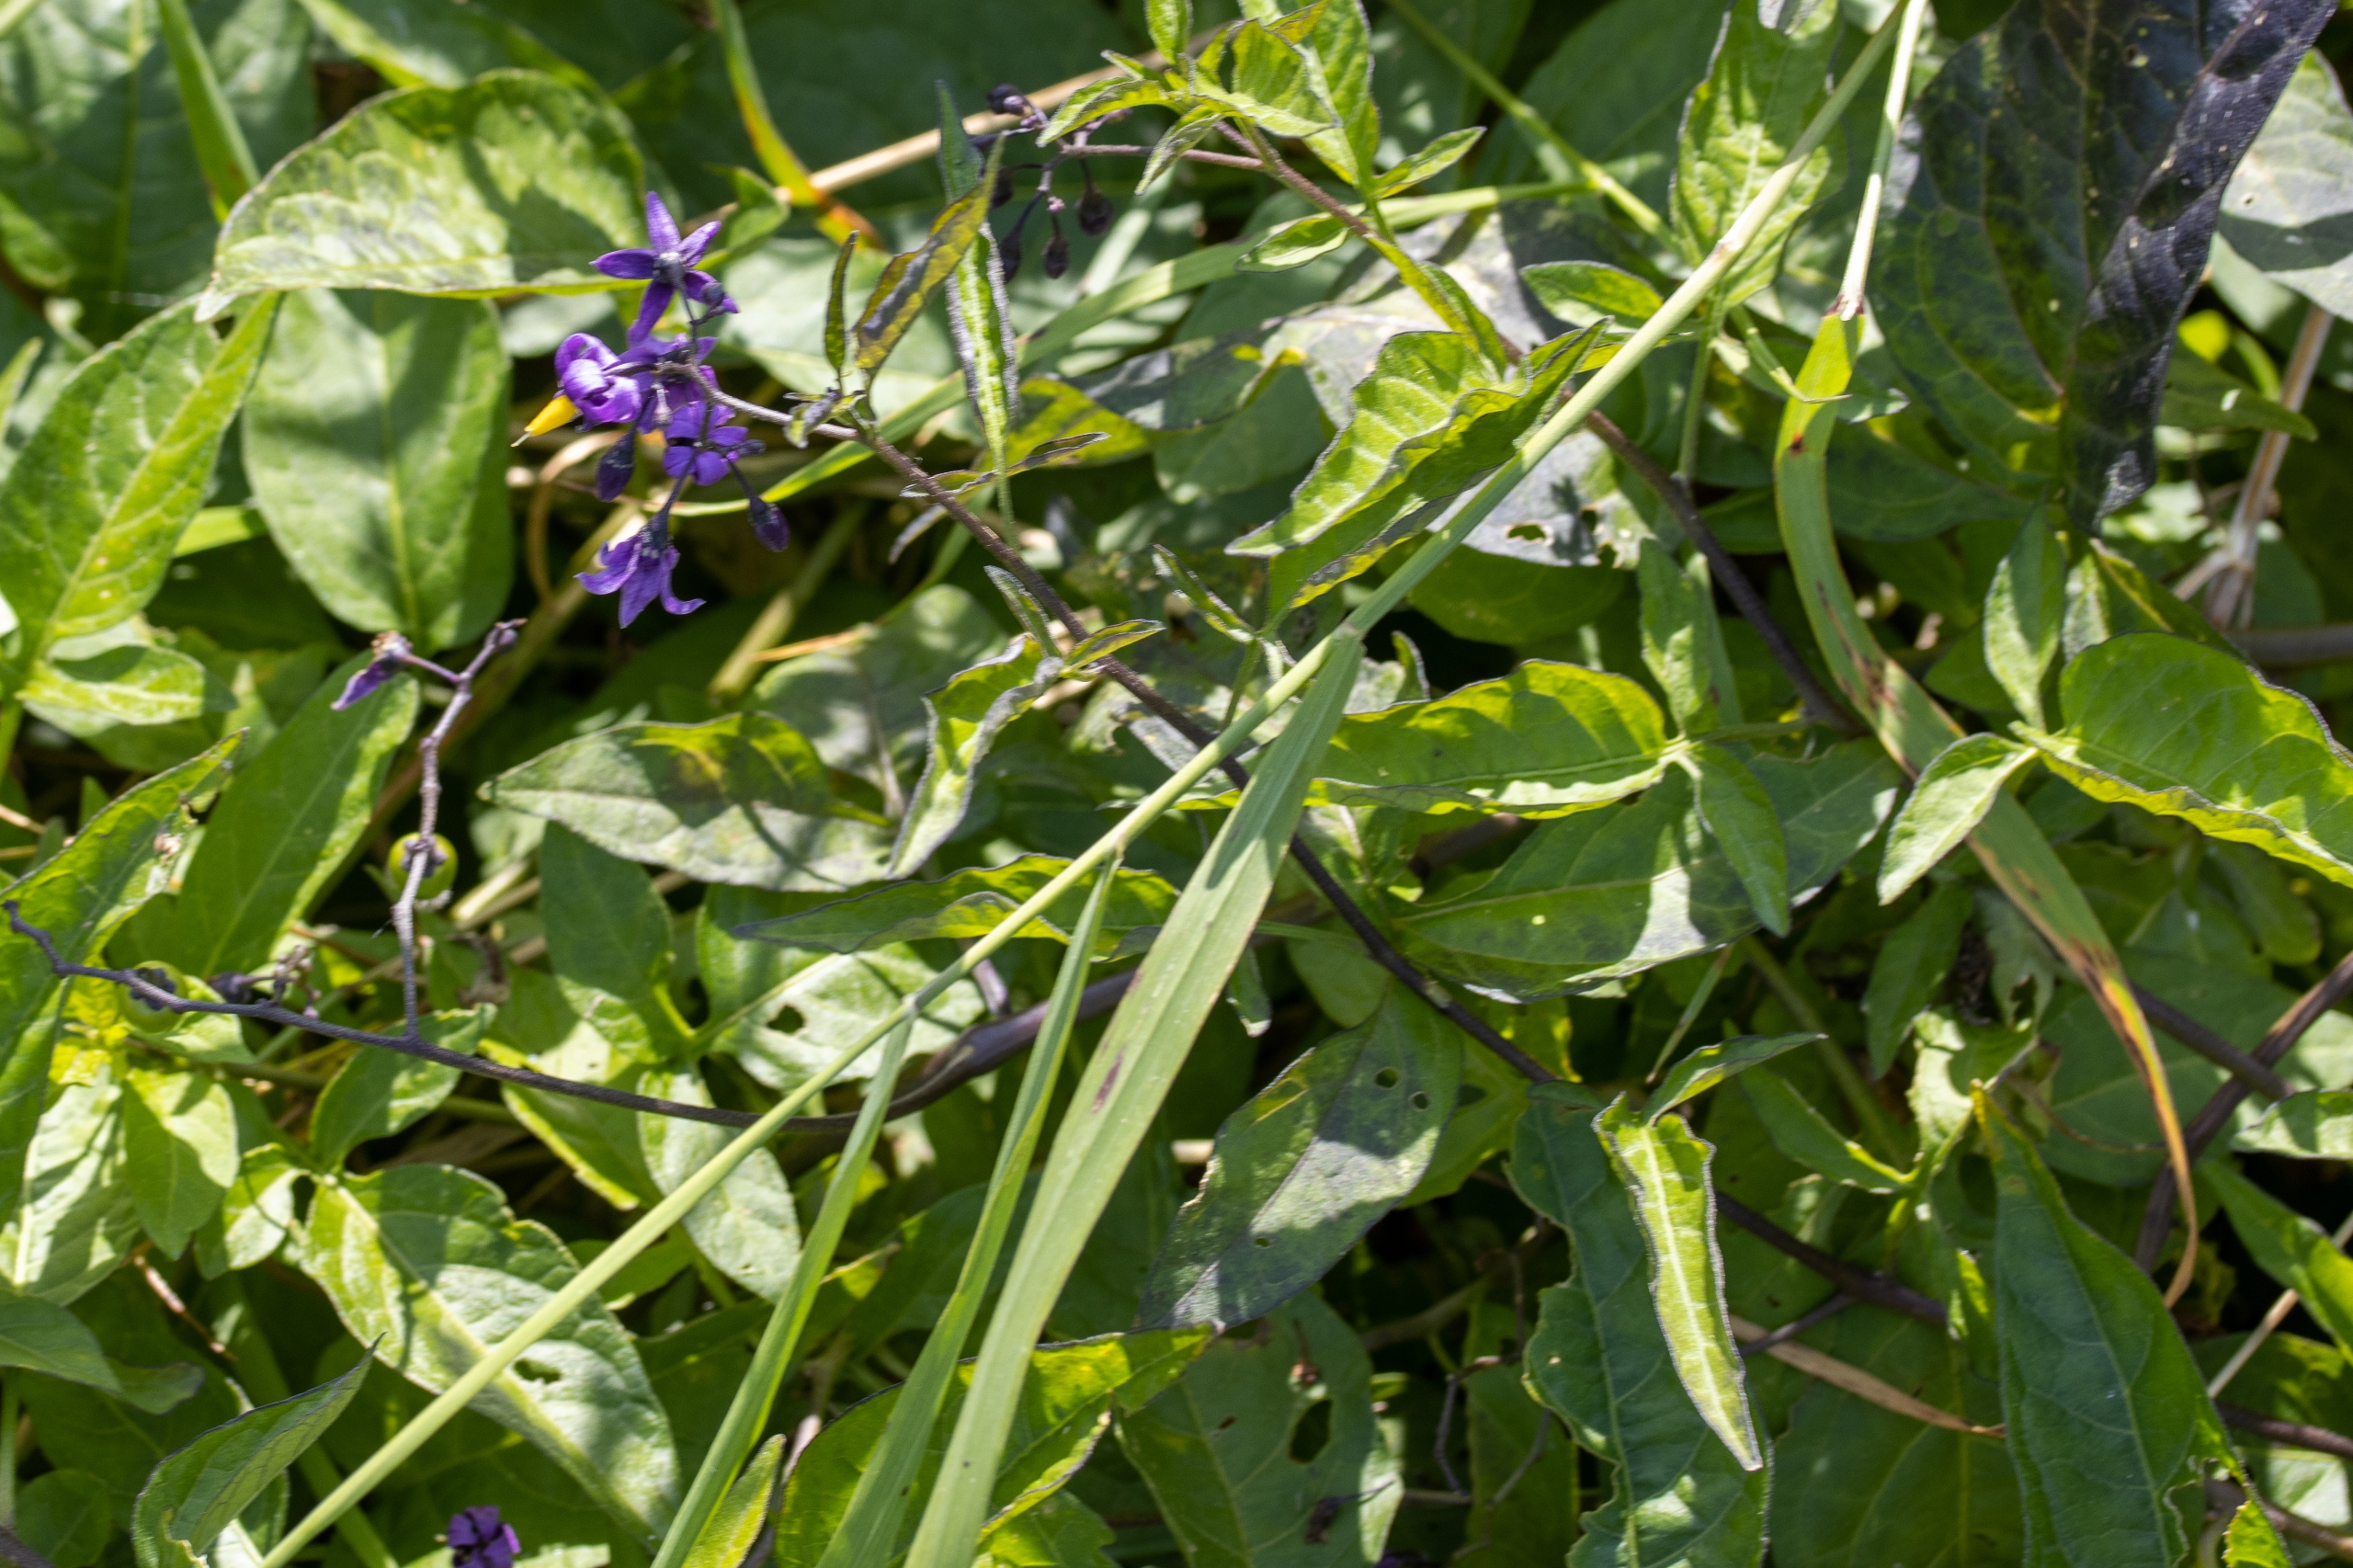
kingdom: Plantae
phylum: Tracheophyta
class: Magnoliopsida
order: Solanales
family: Solanaceae
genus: Solanum
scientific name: Solanum dulcamara
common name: Bittersød natskygge
